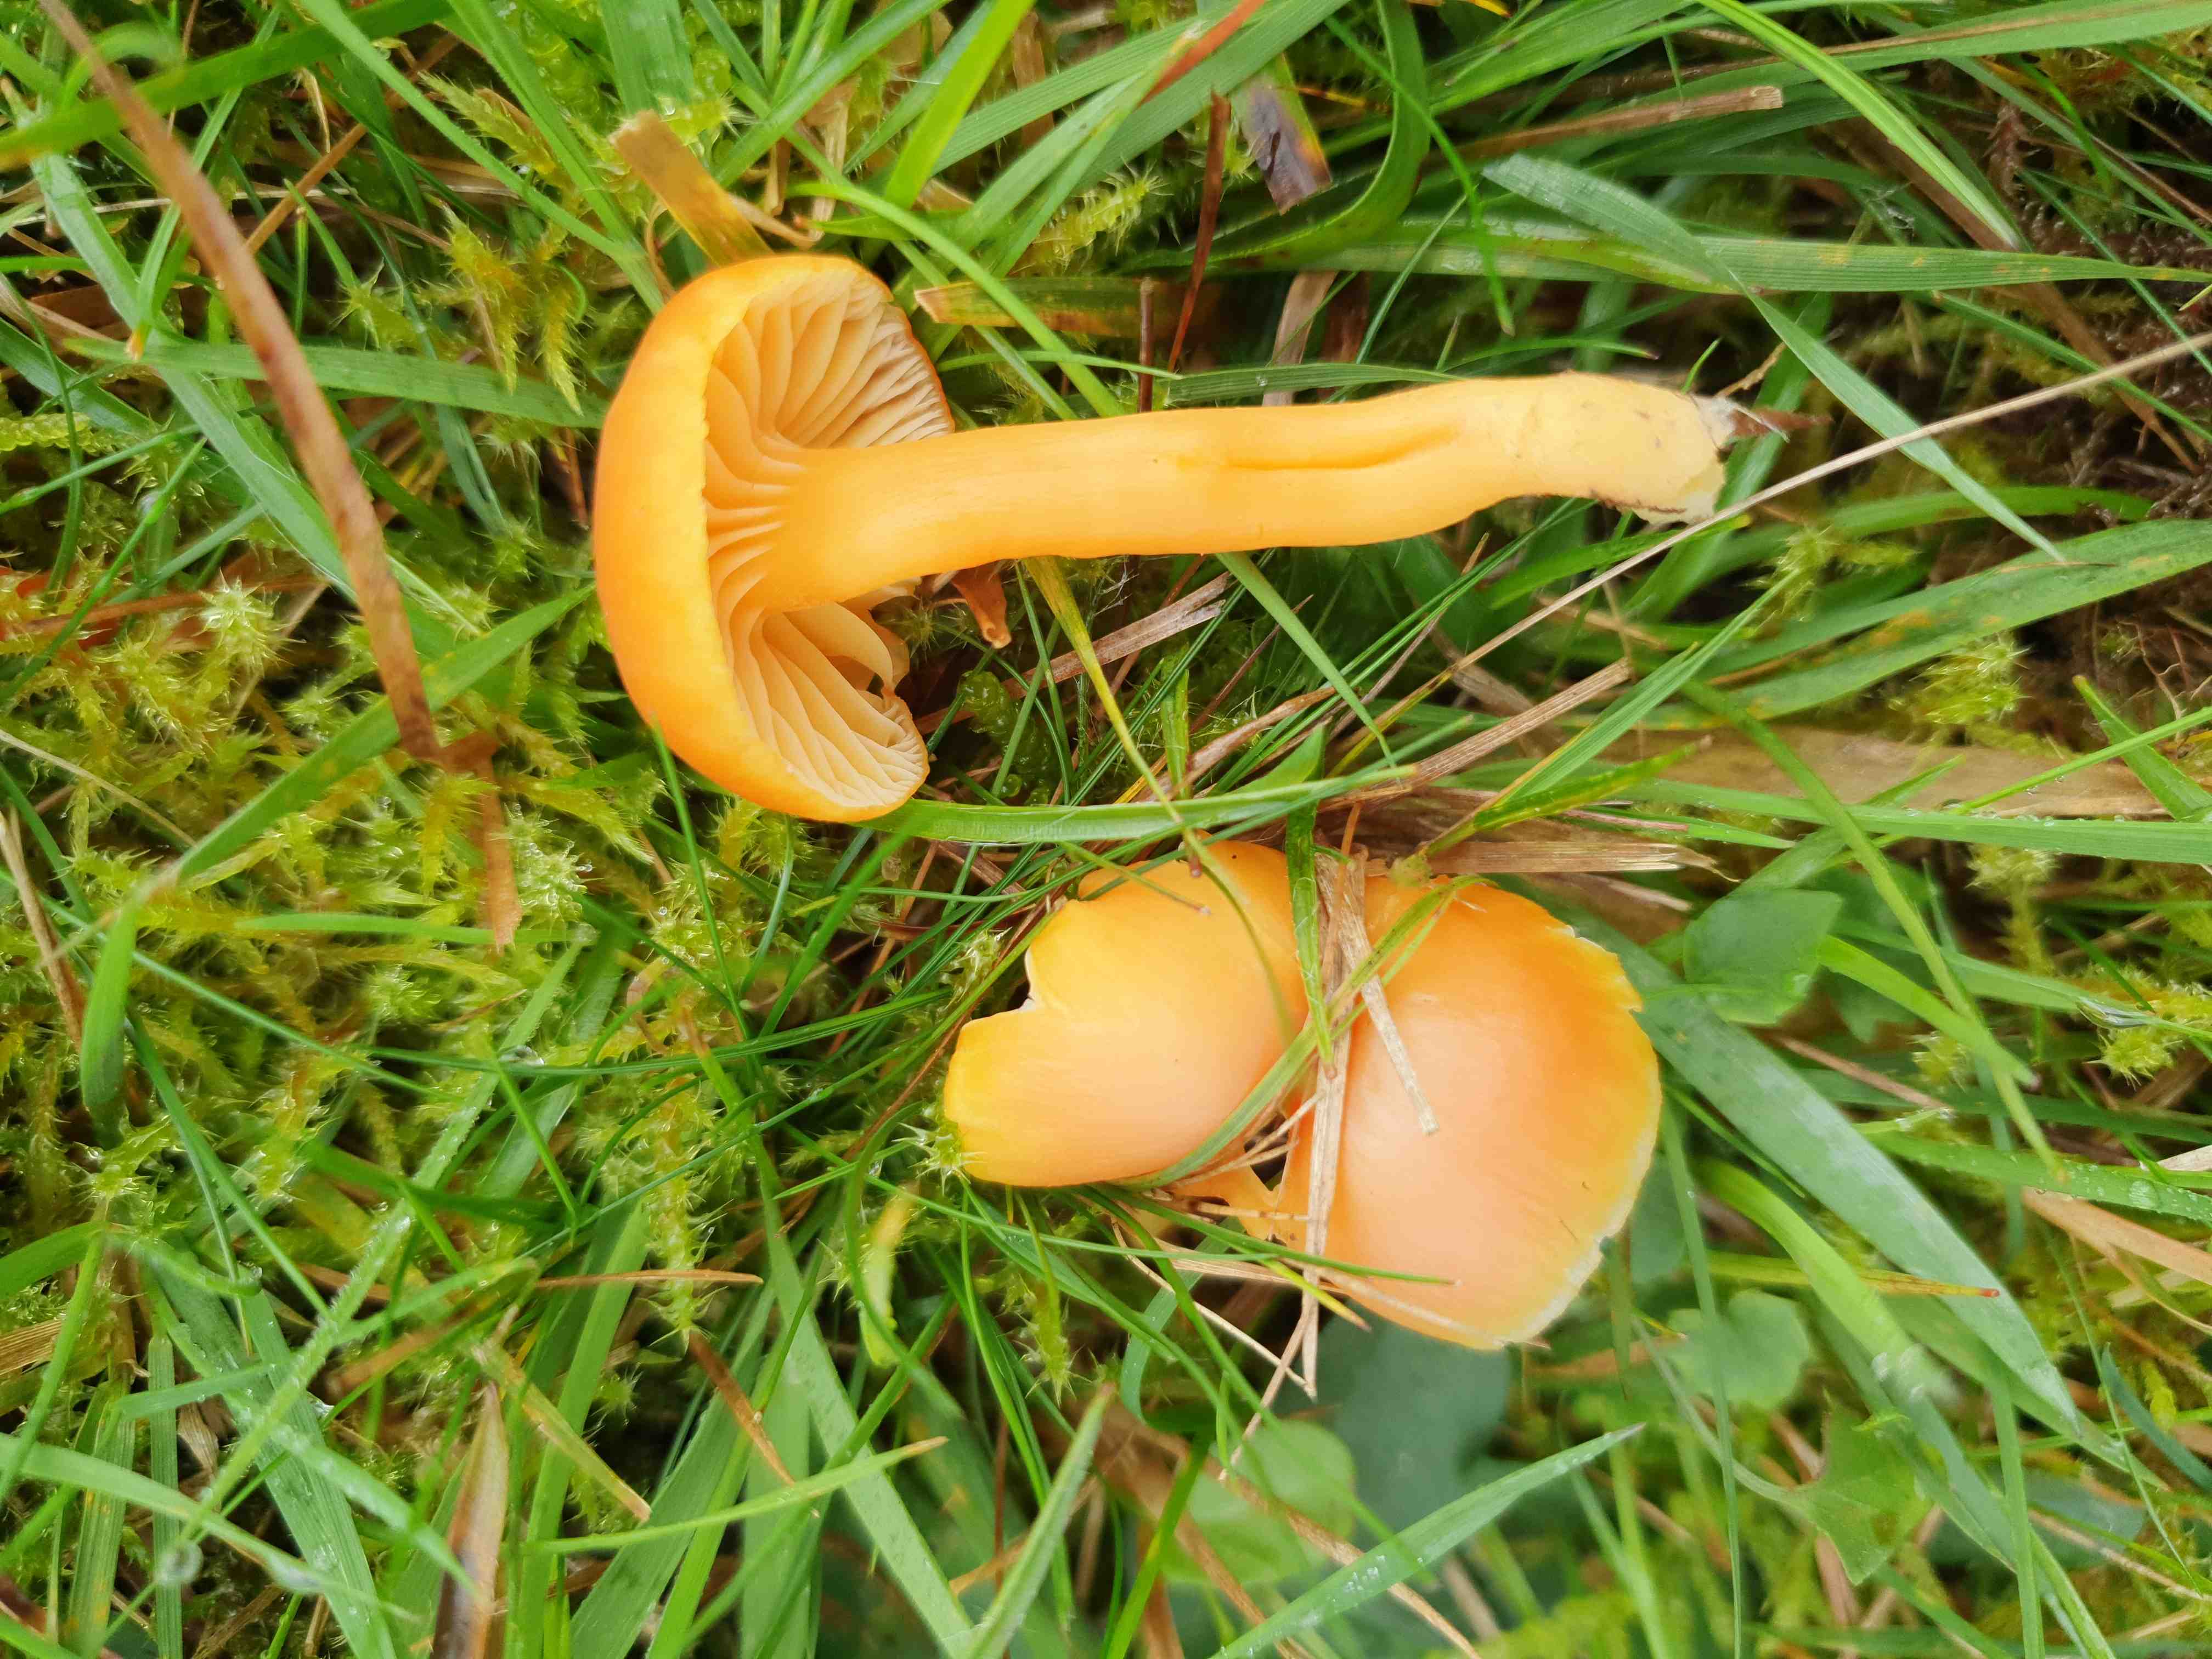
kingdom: Fungi
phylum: Basidiomycota
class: Agaricomycetes
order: Agaricales
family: Hygrophoraceae
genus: Hygrocybe
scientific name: Hygrocybe reidii
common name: honning-vokshat
